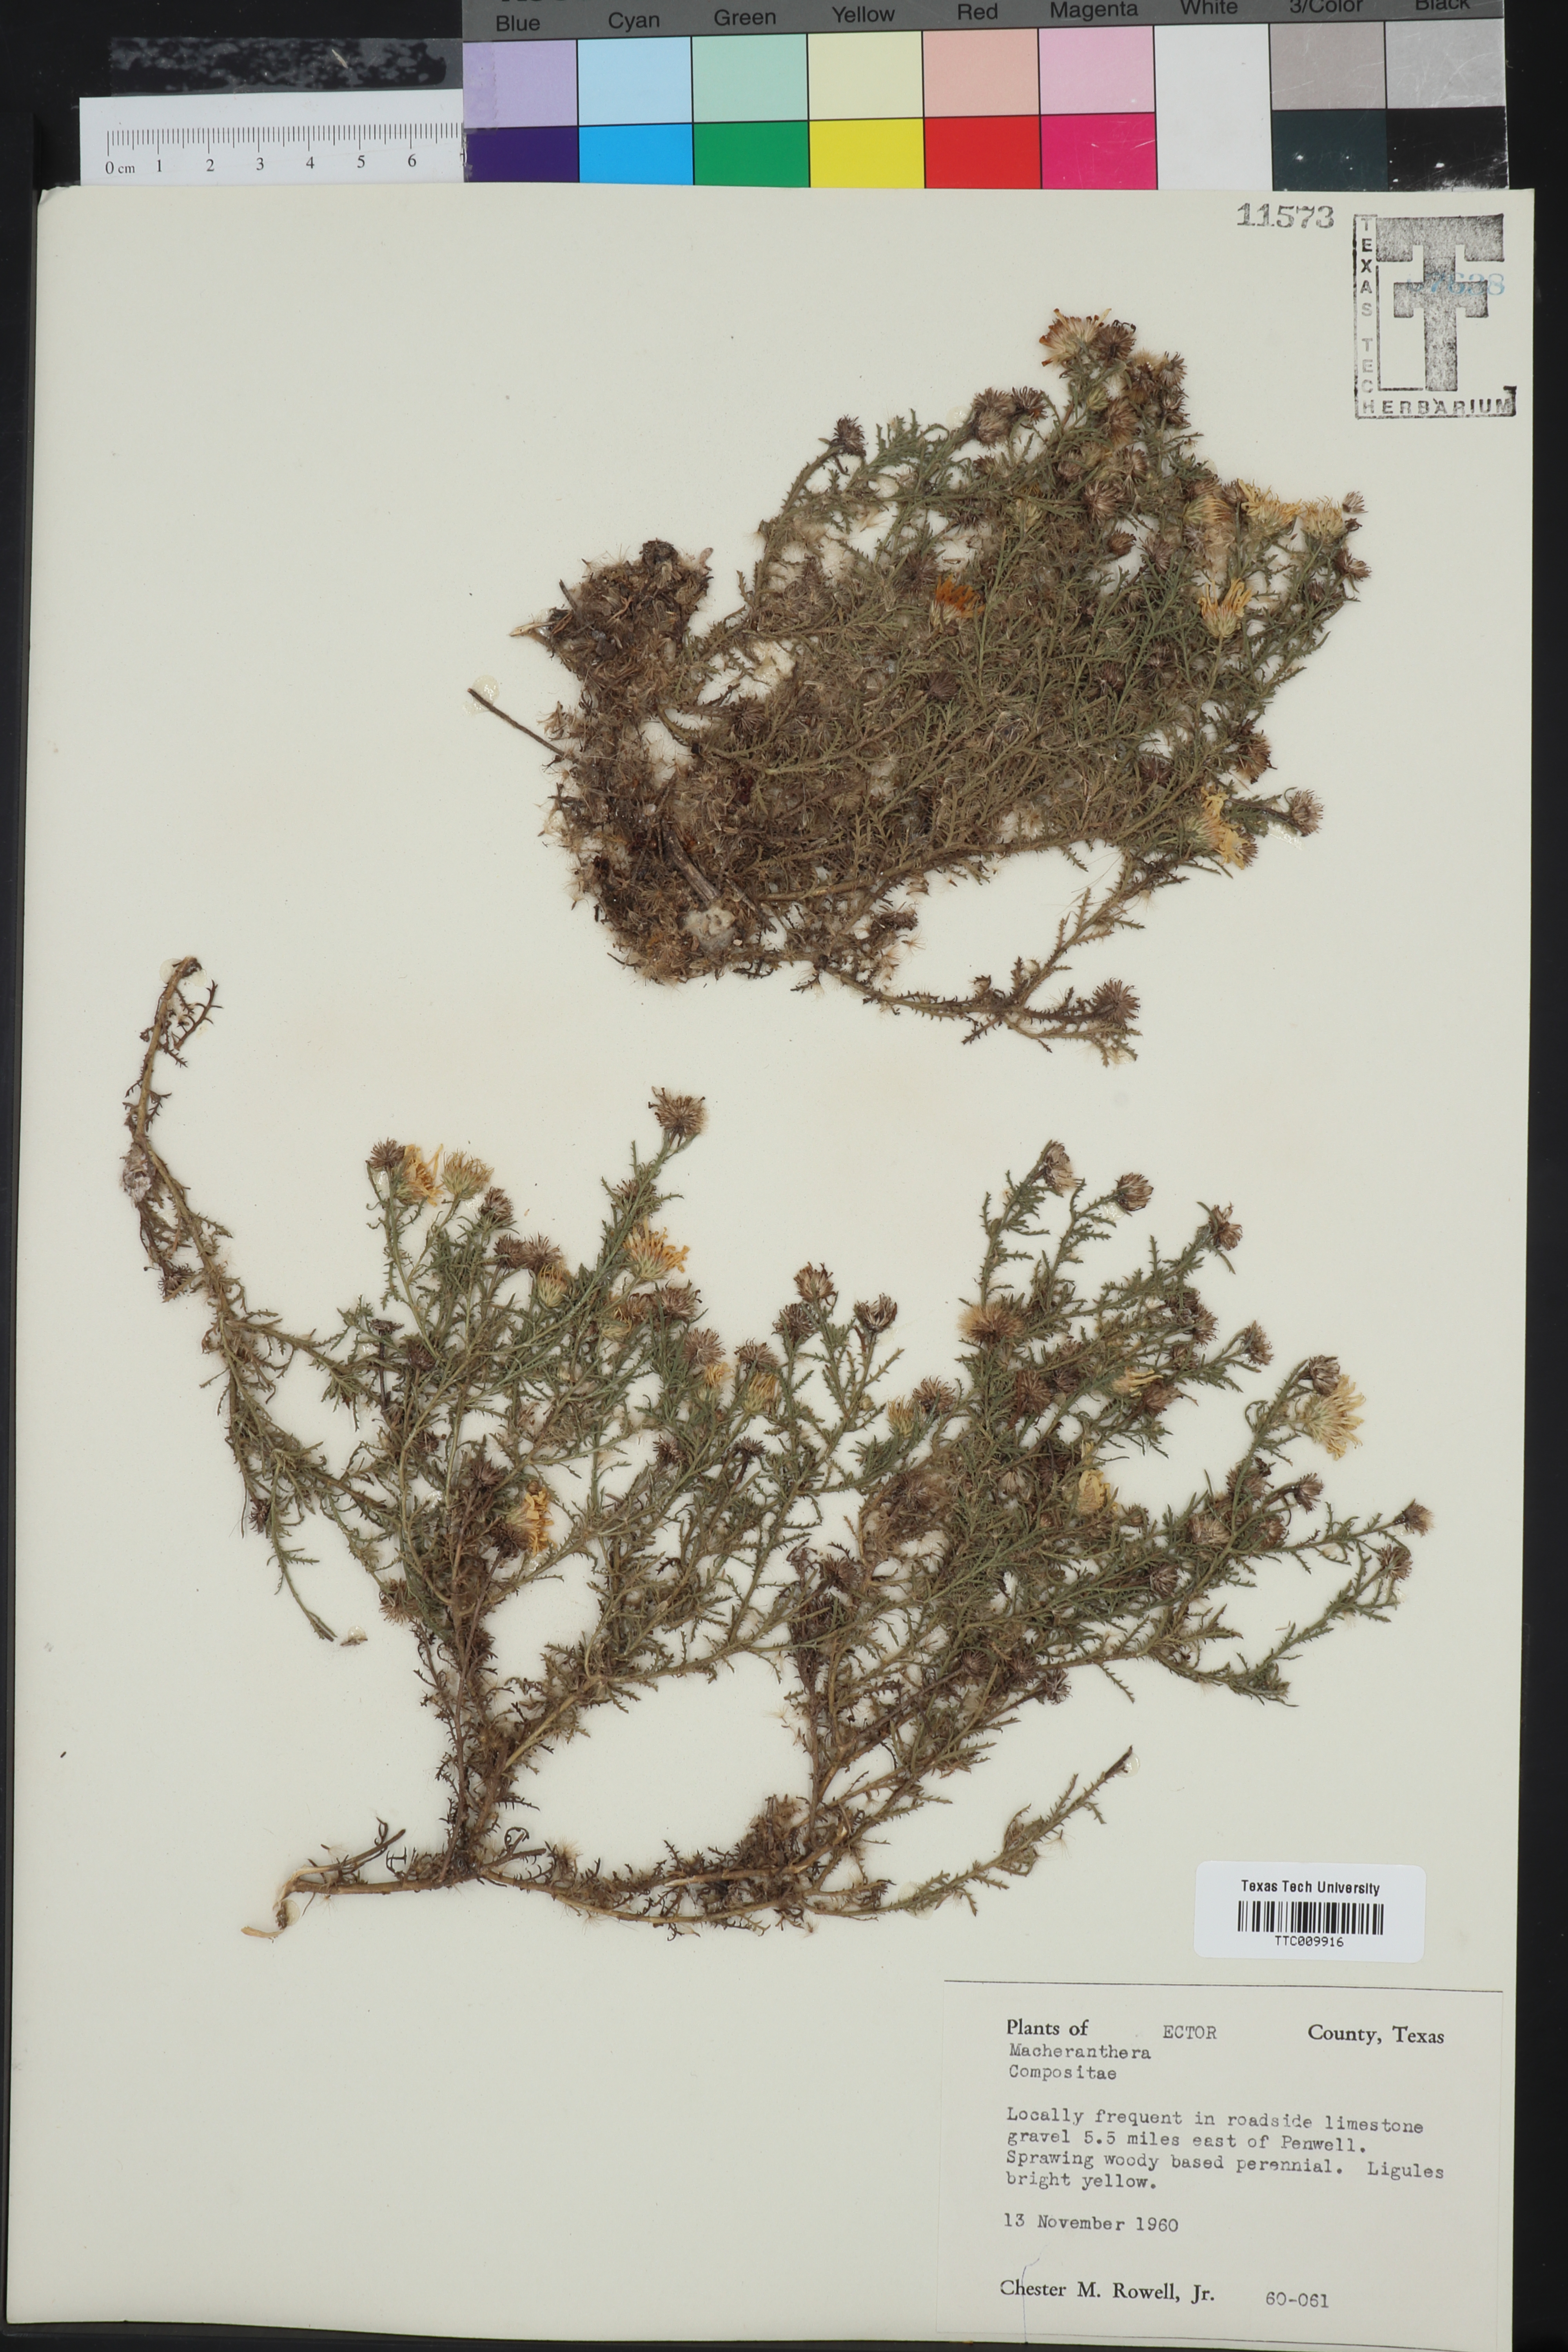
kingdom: Plantae
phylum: Tracheophyta
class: Magnoliopsida
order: Asterales
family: Asteraceae
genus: Machaeranthera
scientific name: Machaeranthera
